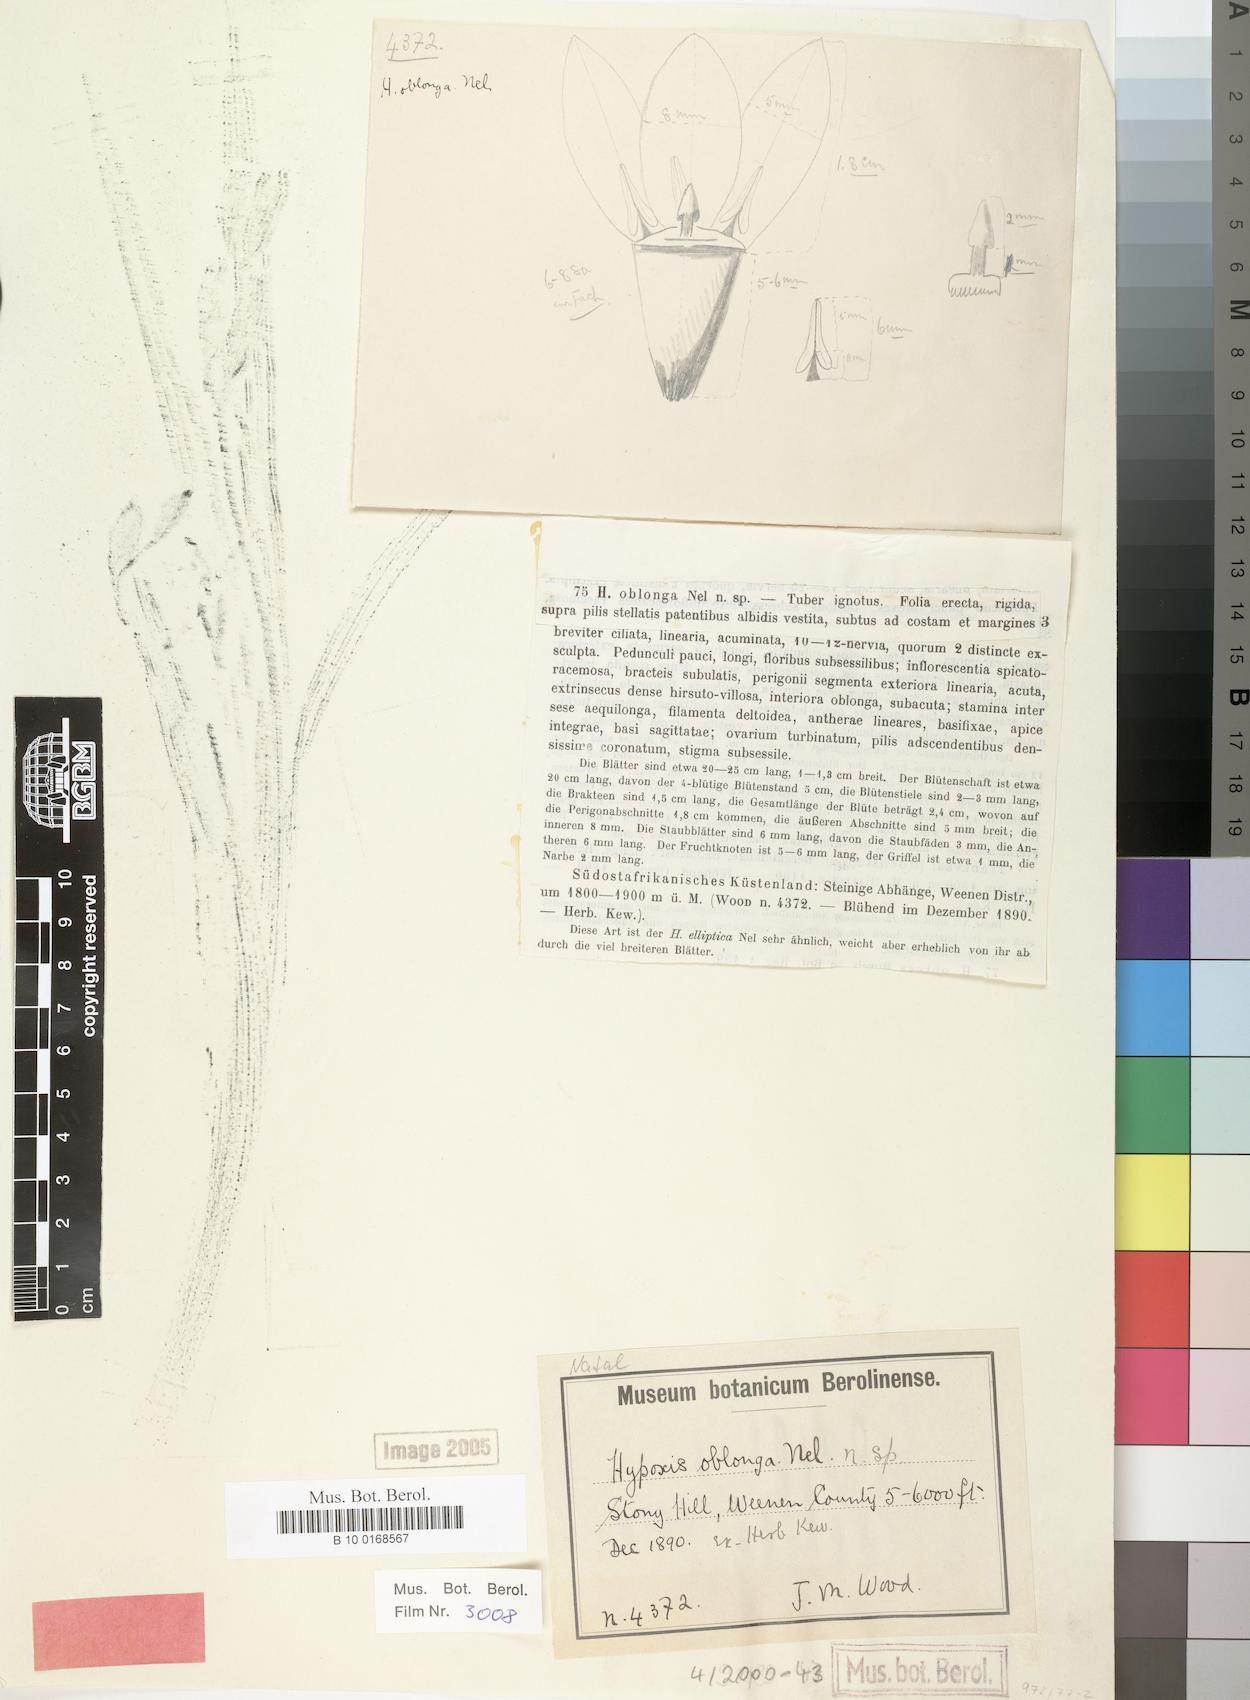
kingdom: Plantae
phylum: Tracheophyta
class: Liliopsida
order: Asparagales
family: Hypoxidaceae
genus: Hypoxis
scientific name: Hypoxis oblonga
